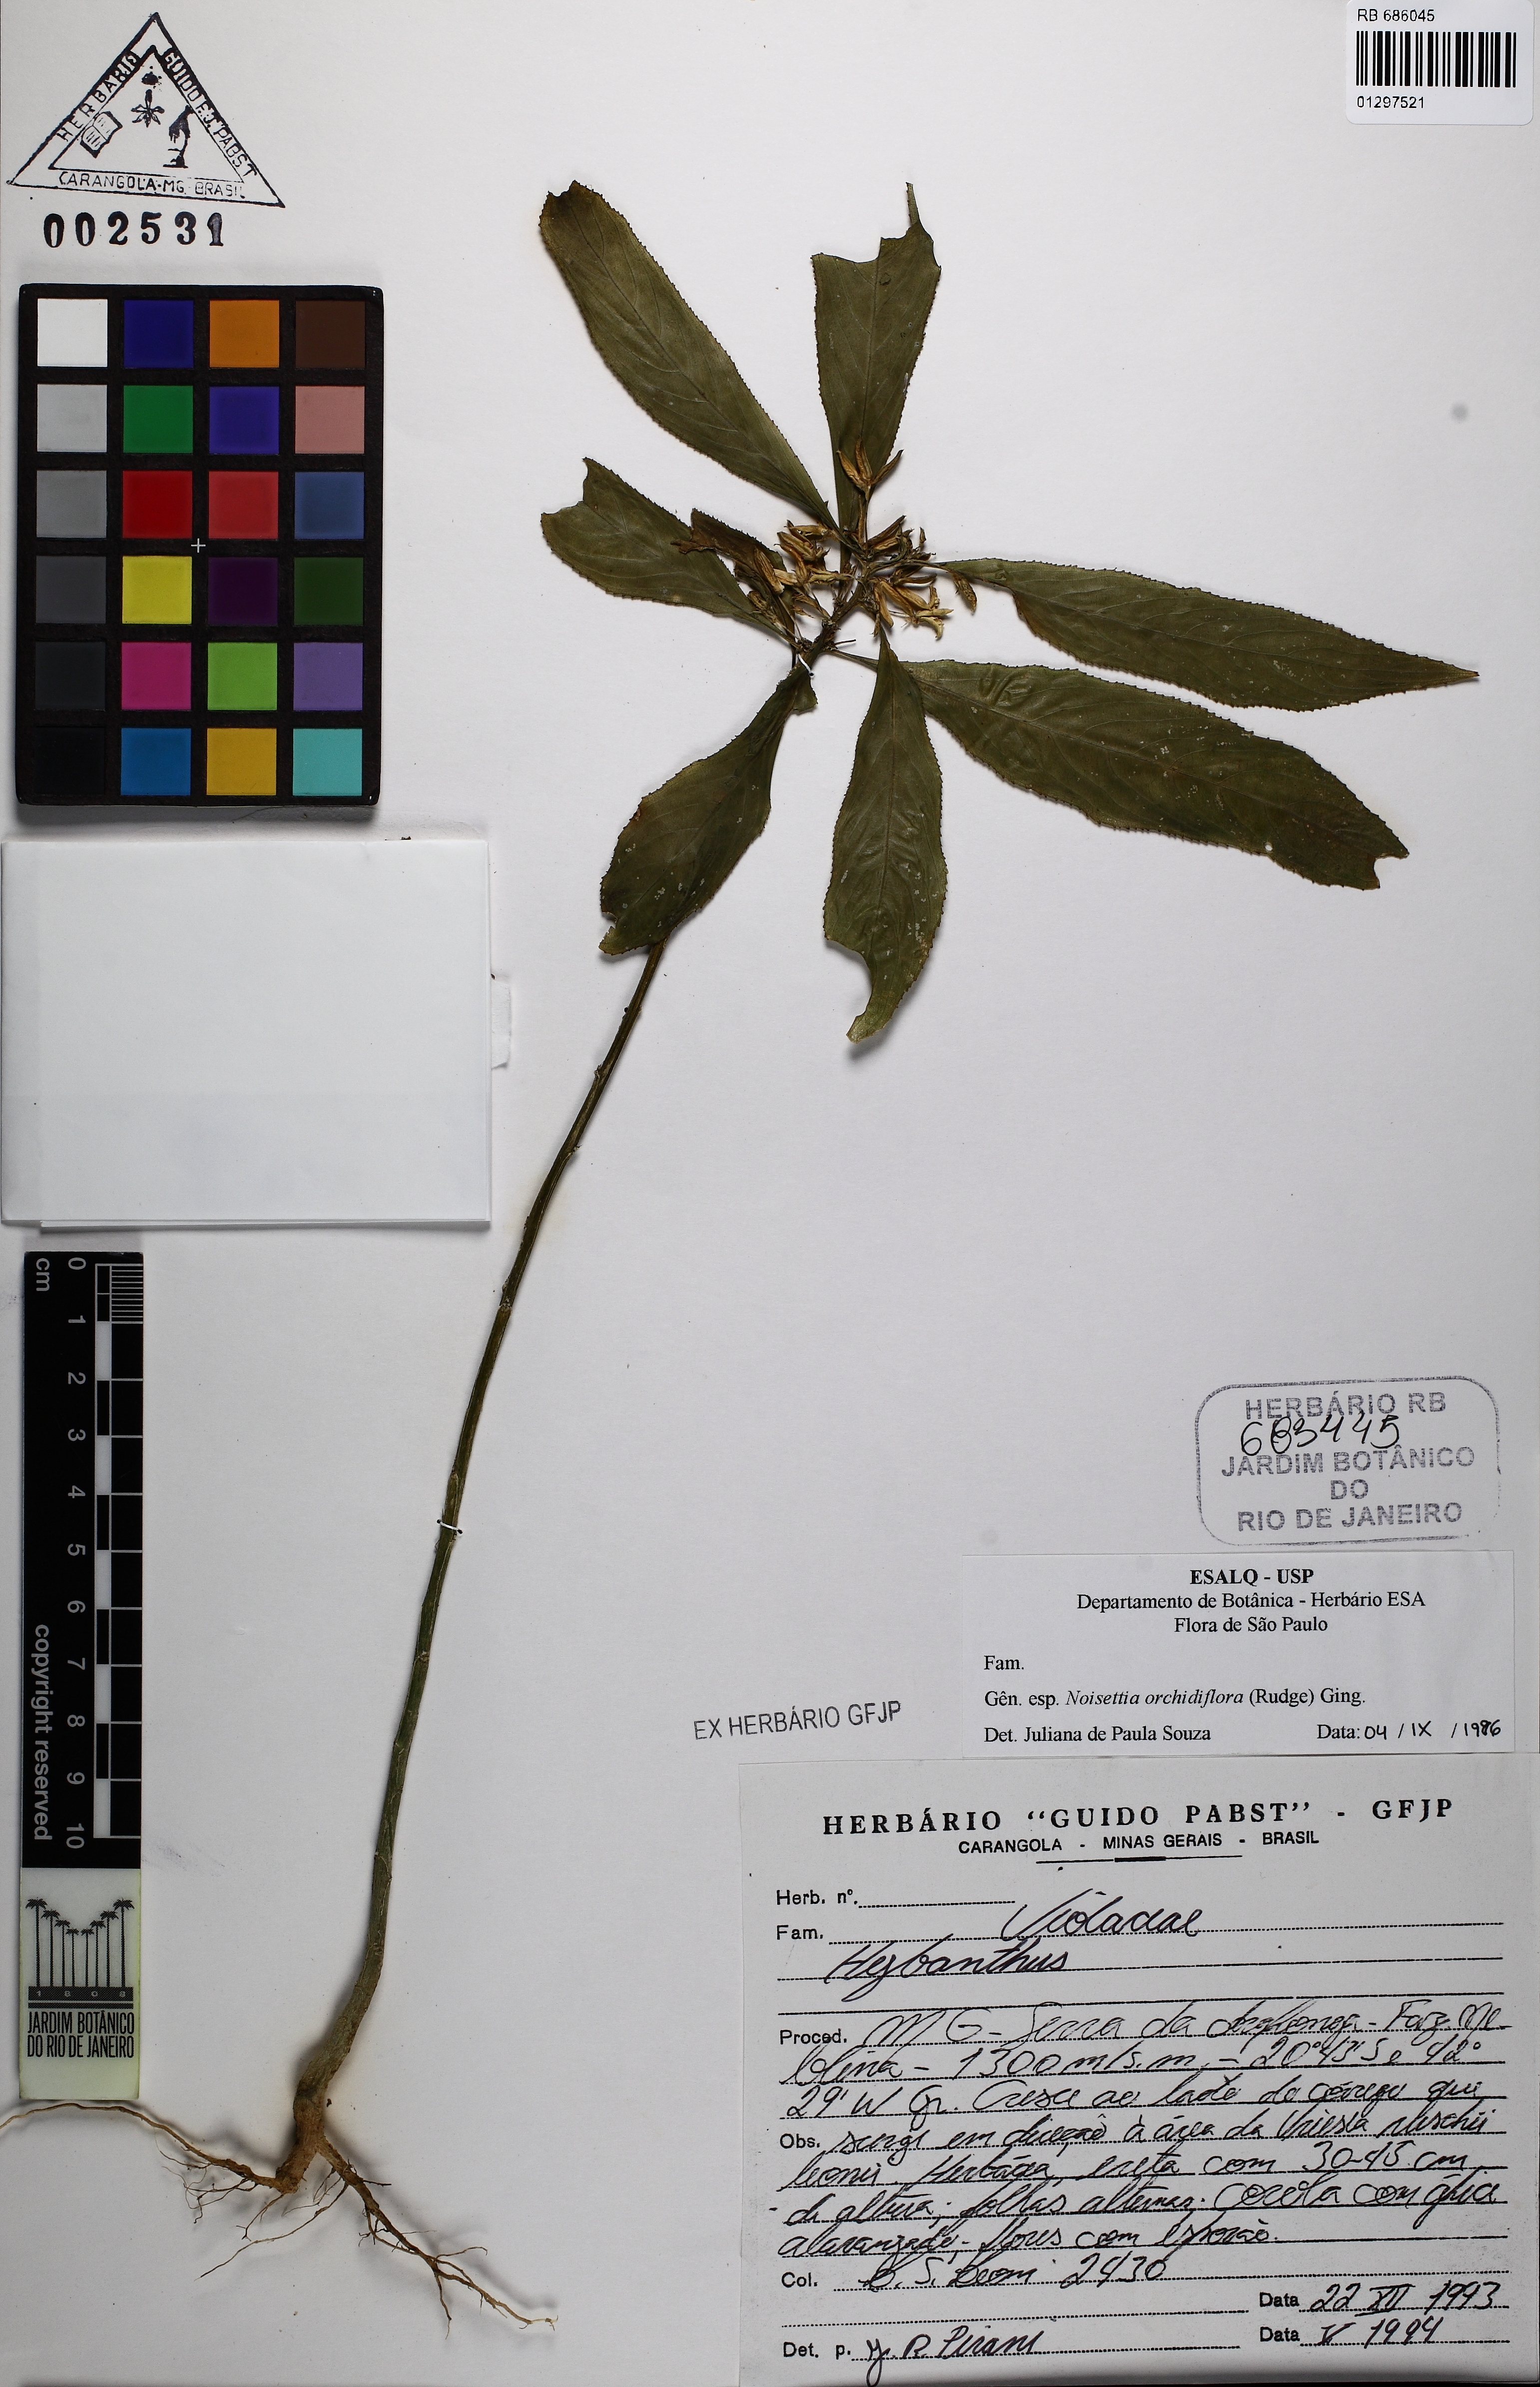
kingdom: Plantae
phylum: Tracheophyta
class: Magnoliopsida
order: Lamiales
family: Plantaginaceae
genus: Matourea
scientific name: Matourea
